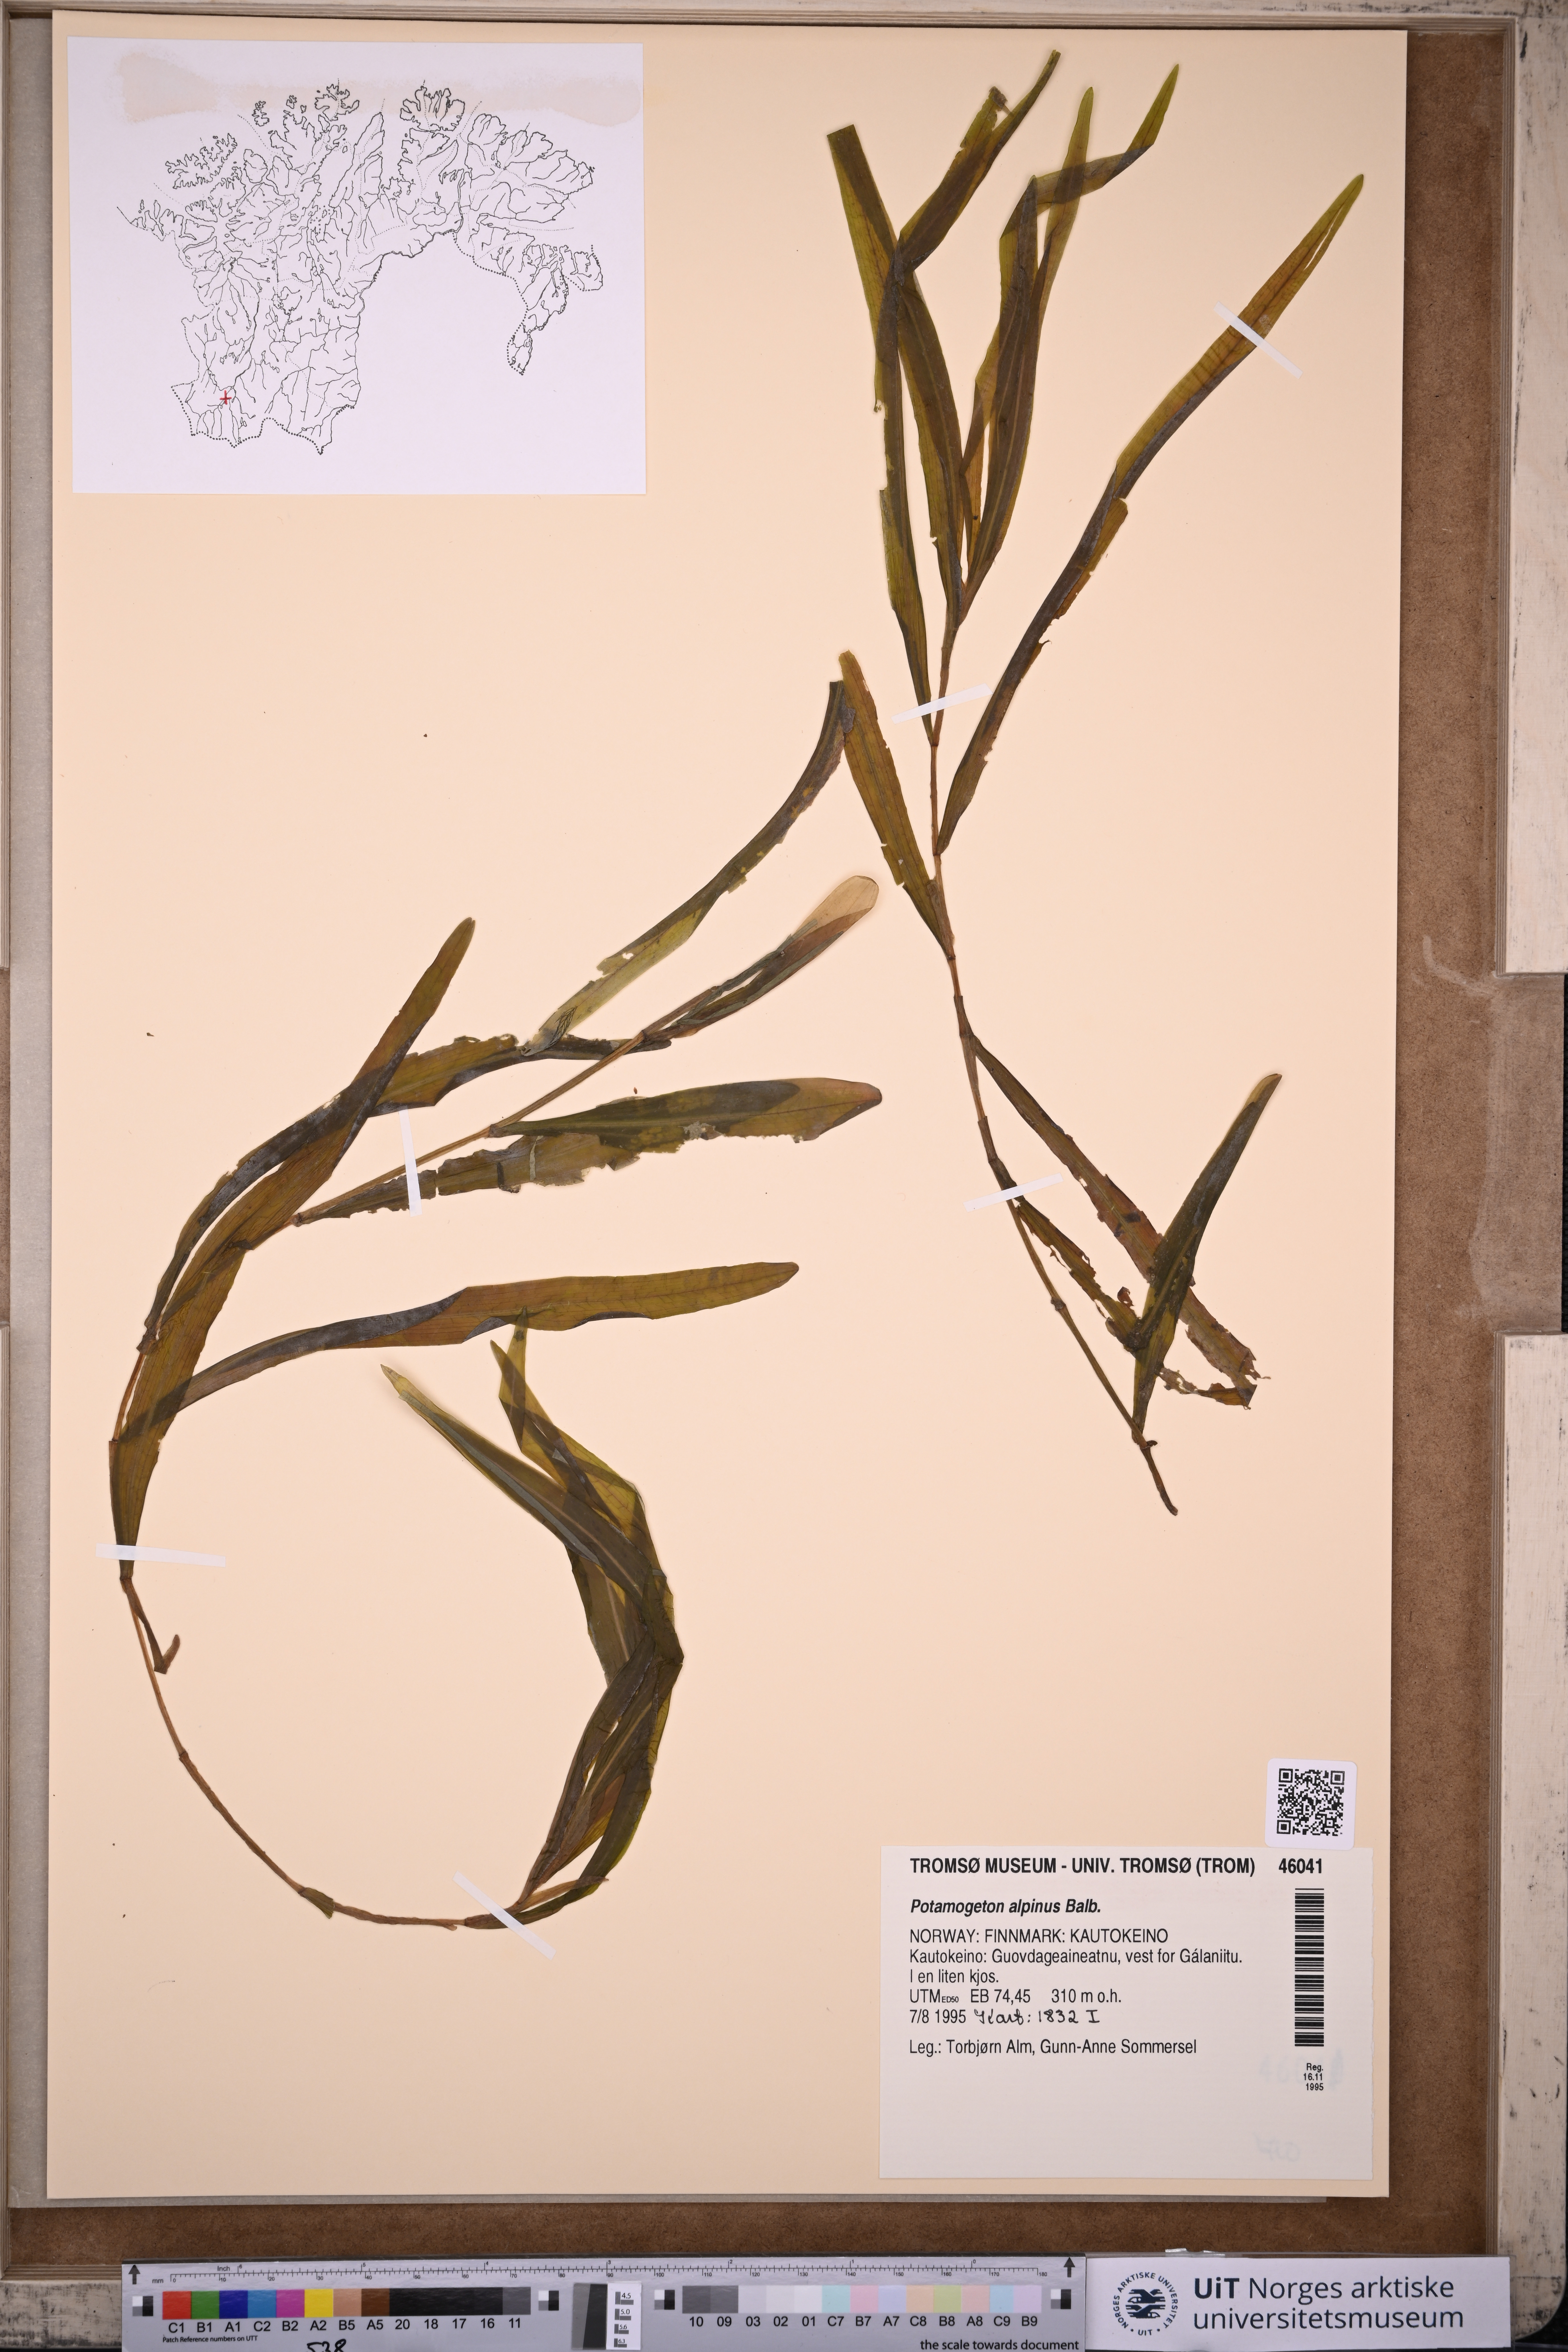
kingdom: Plantae
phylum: Tracheophyta
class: Liliopsida
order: Alismatales
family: Potamogetonaceae
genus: Potamogeton
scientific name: Potamogeton alpinus
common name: Red pondweed
